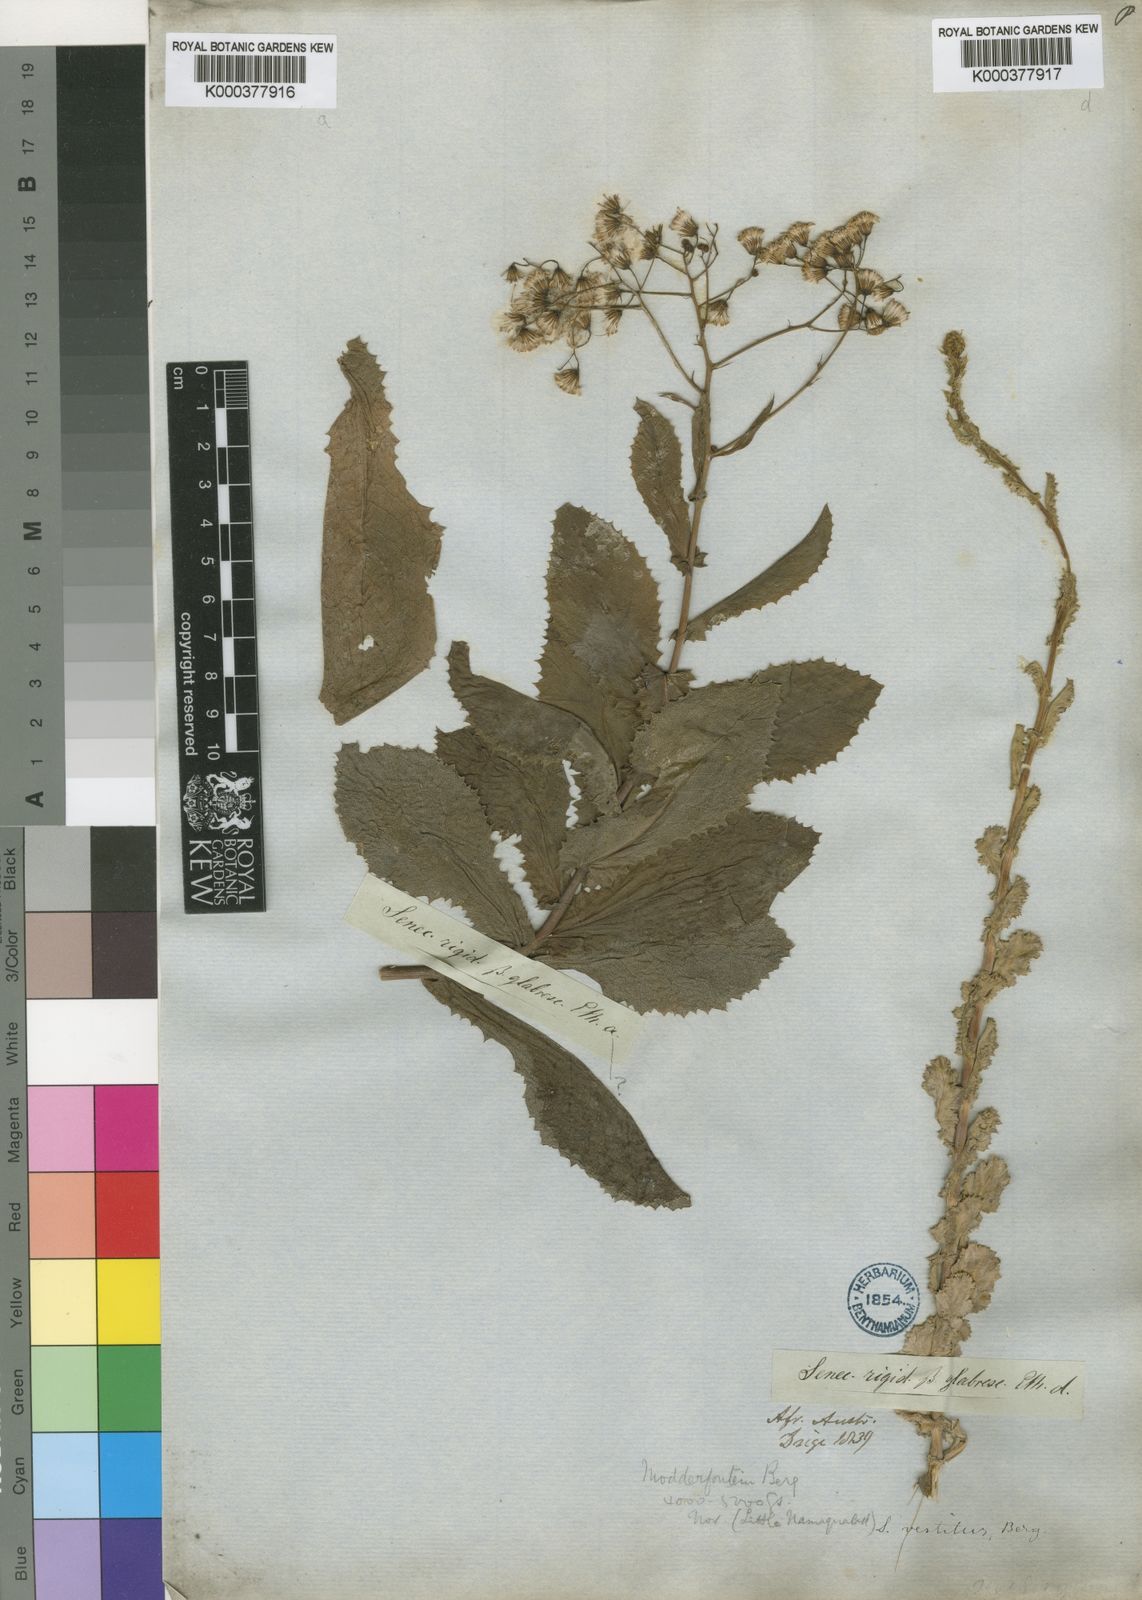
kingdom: Plantae
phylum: Tracheophyta
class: Magnoliopsida
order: Asterales
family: Asteraceae
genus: Senecio
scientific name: Senecio vestitus
